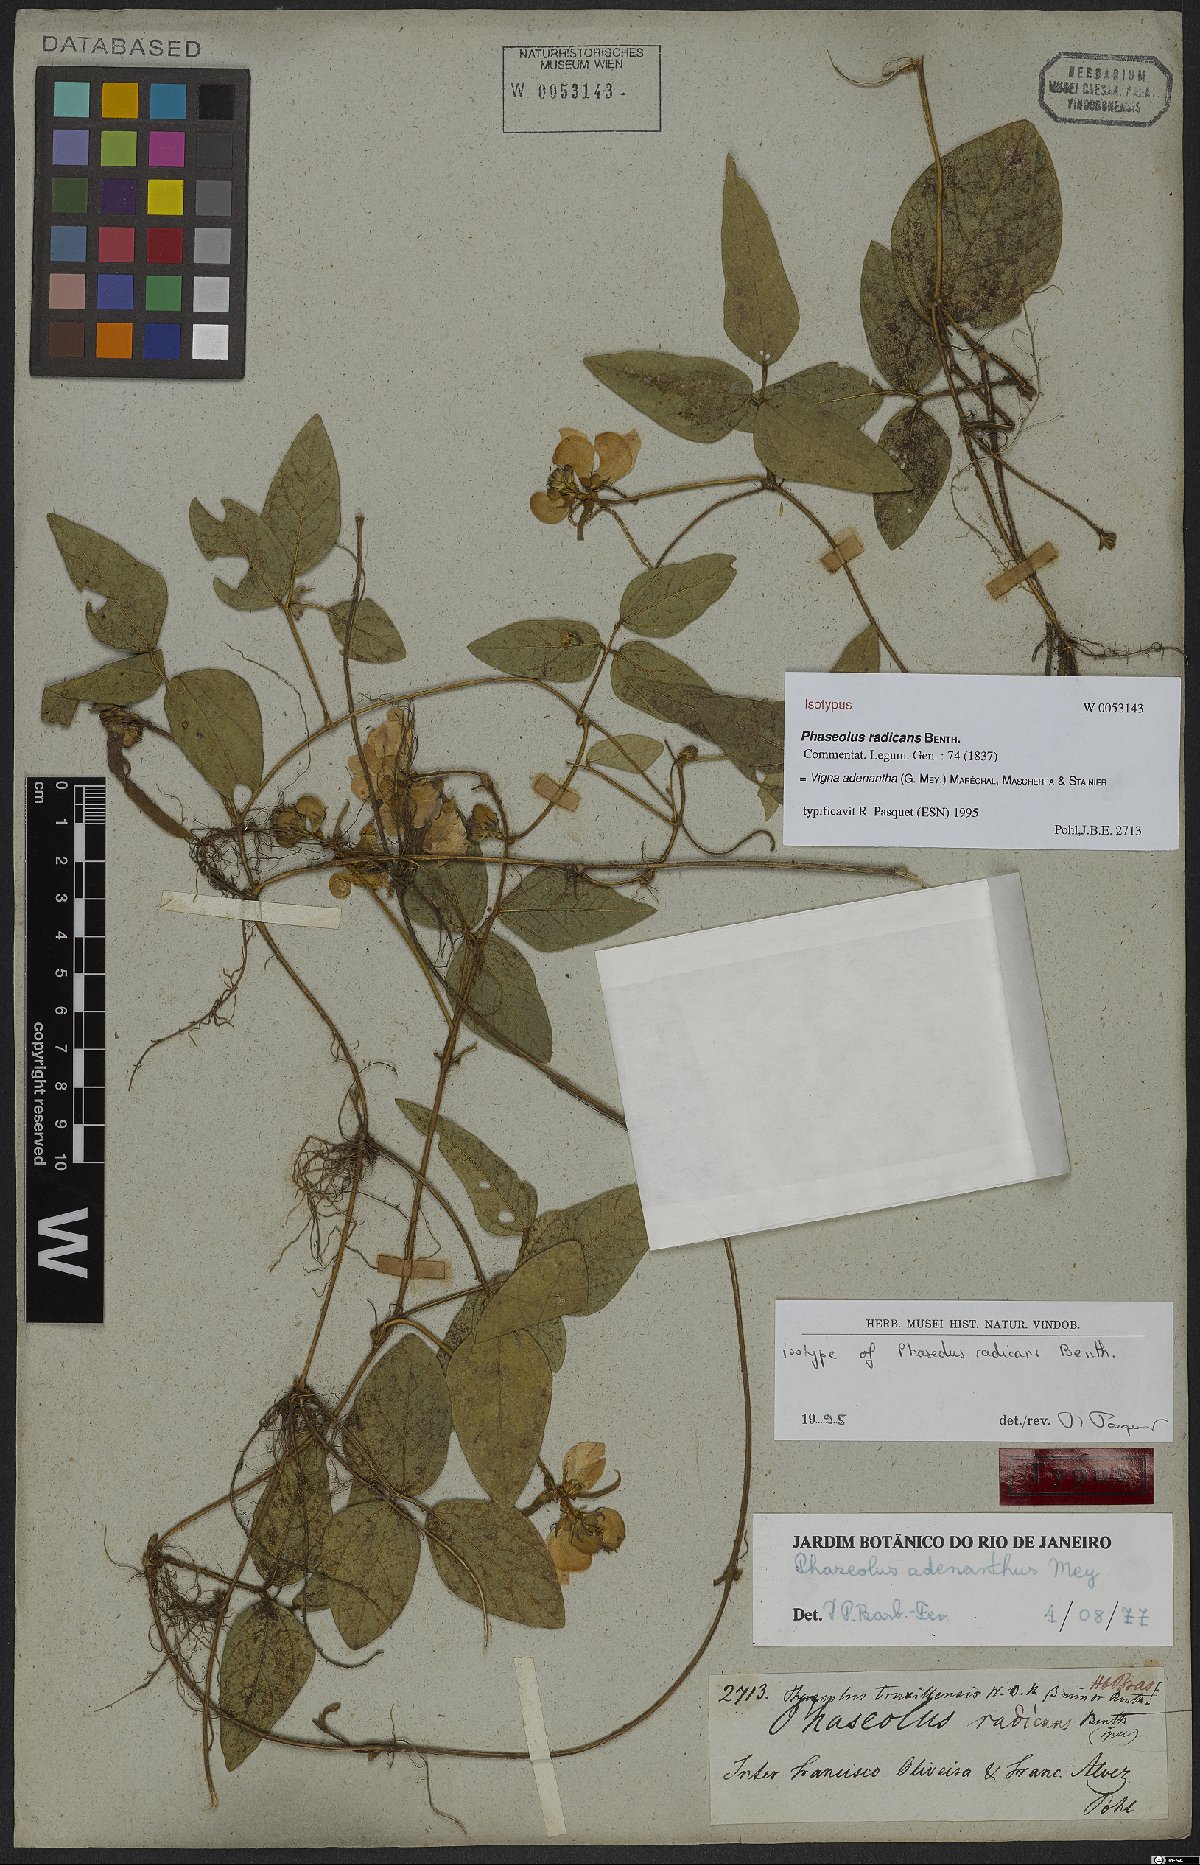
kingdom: Plantae
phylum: Tracheophyta
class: Magnoliopsida
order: Fabales
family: Fabaceae
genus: Leptospron
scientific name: Leptospron adenanthum
